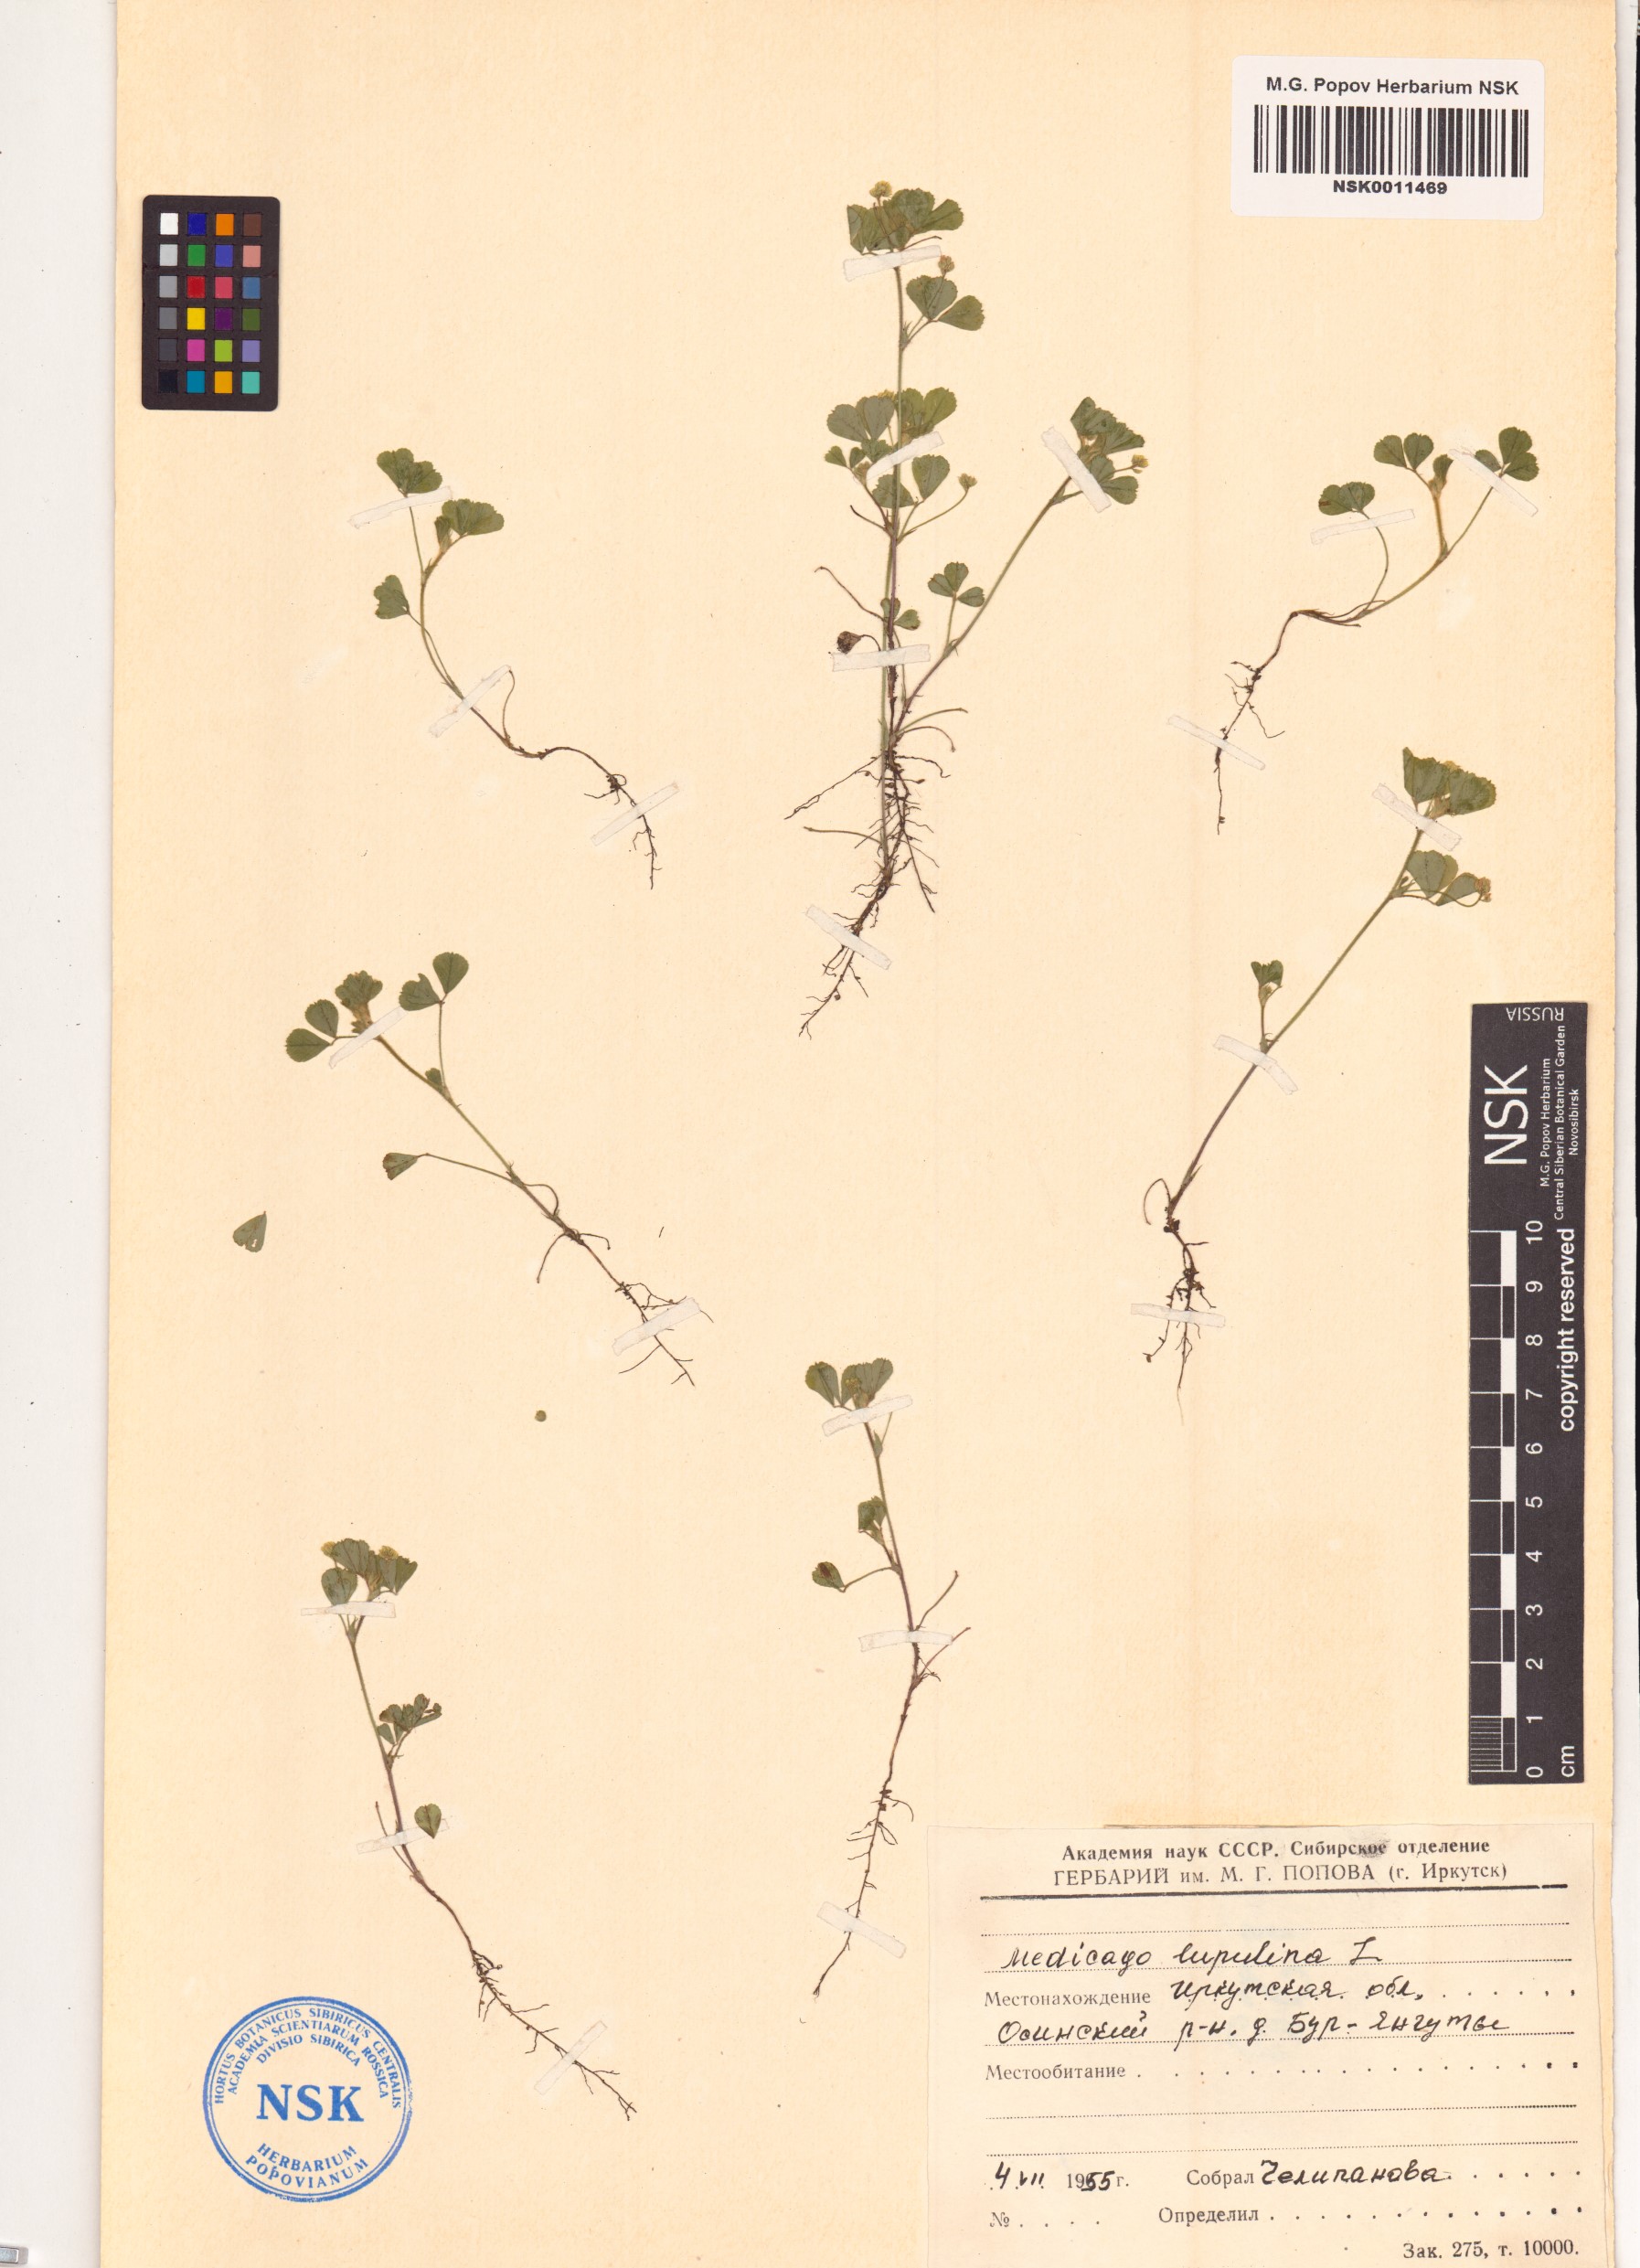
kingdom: Plantae
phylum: Tracheophyta
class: Magnoliopsida
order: Fabales
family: Fabaceae
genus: Medicago
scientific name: Medicago lupulina
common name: Black medick
